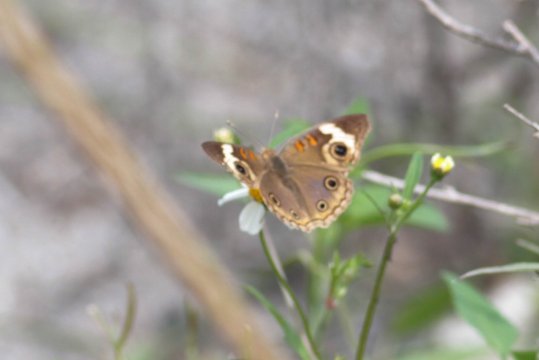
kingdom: Animalia
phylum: Arthropoda
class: Insecta
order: Lepidoptera
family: Nymphalidae
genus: Junonia
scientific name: Junonia lavinia
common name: Tropical Buckeye
